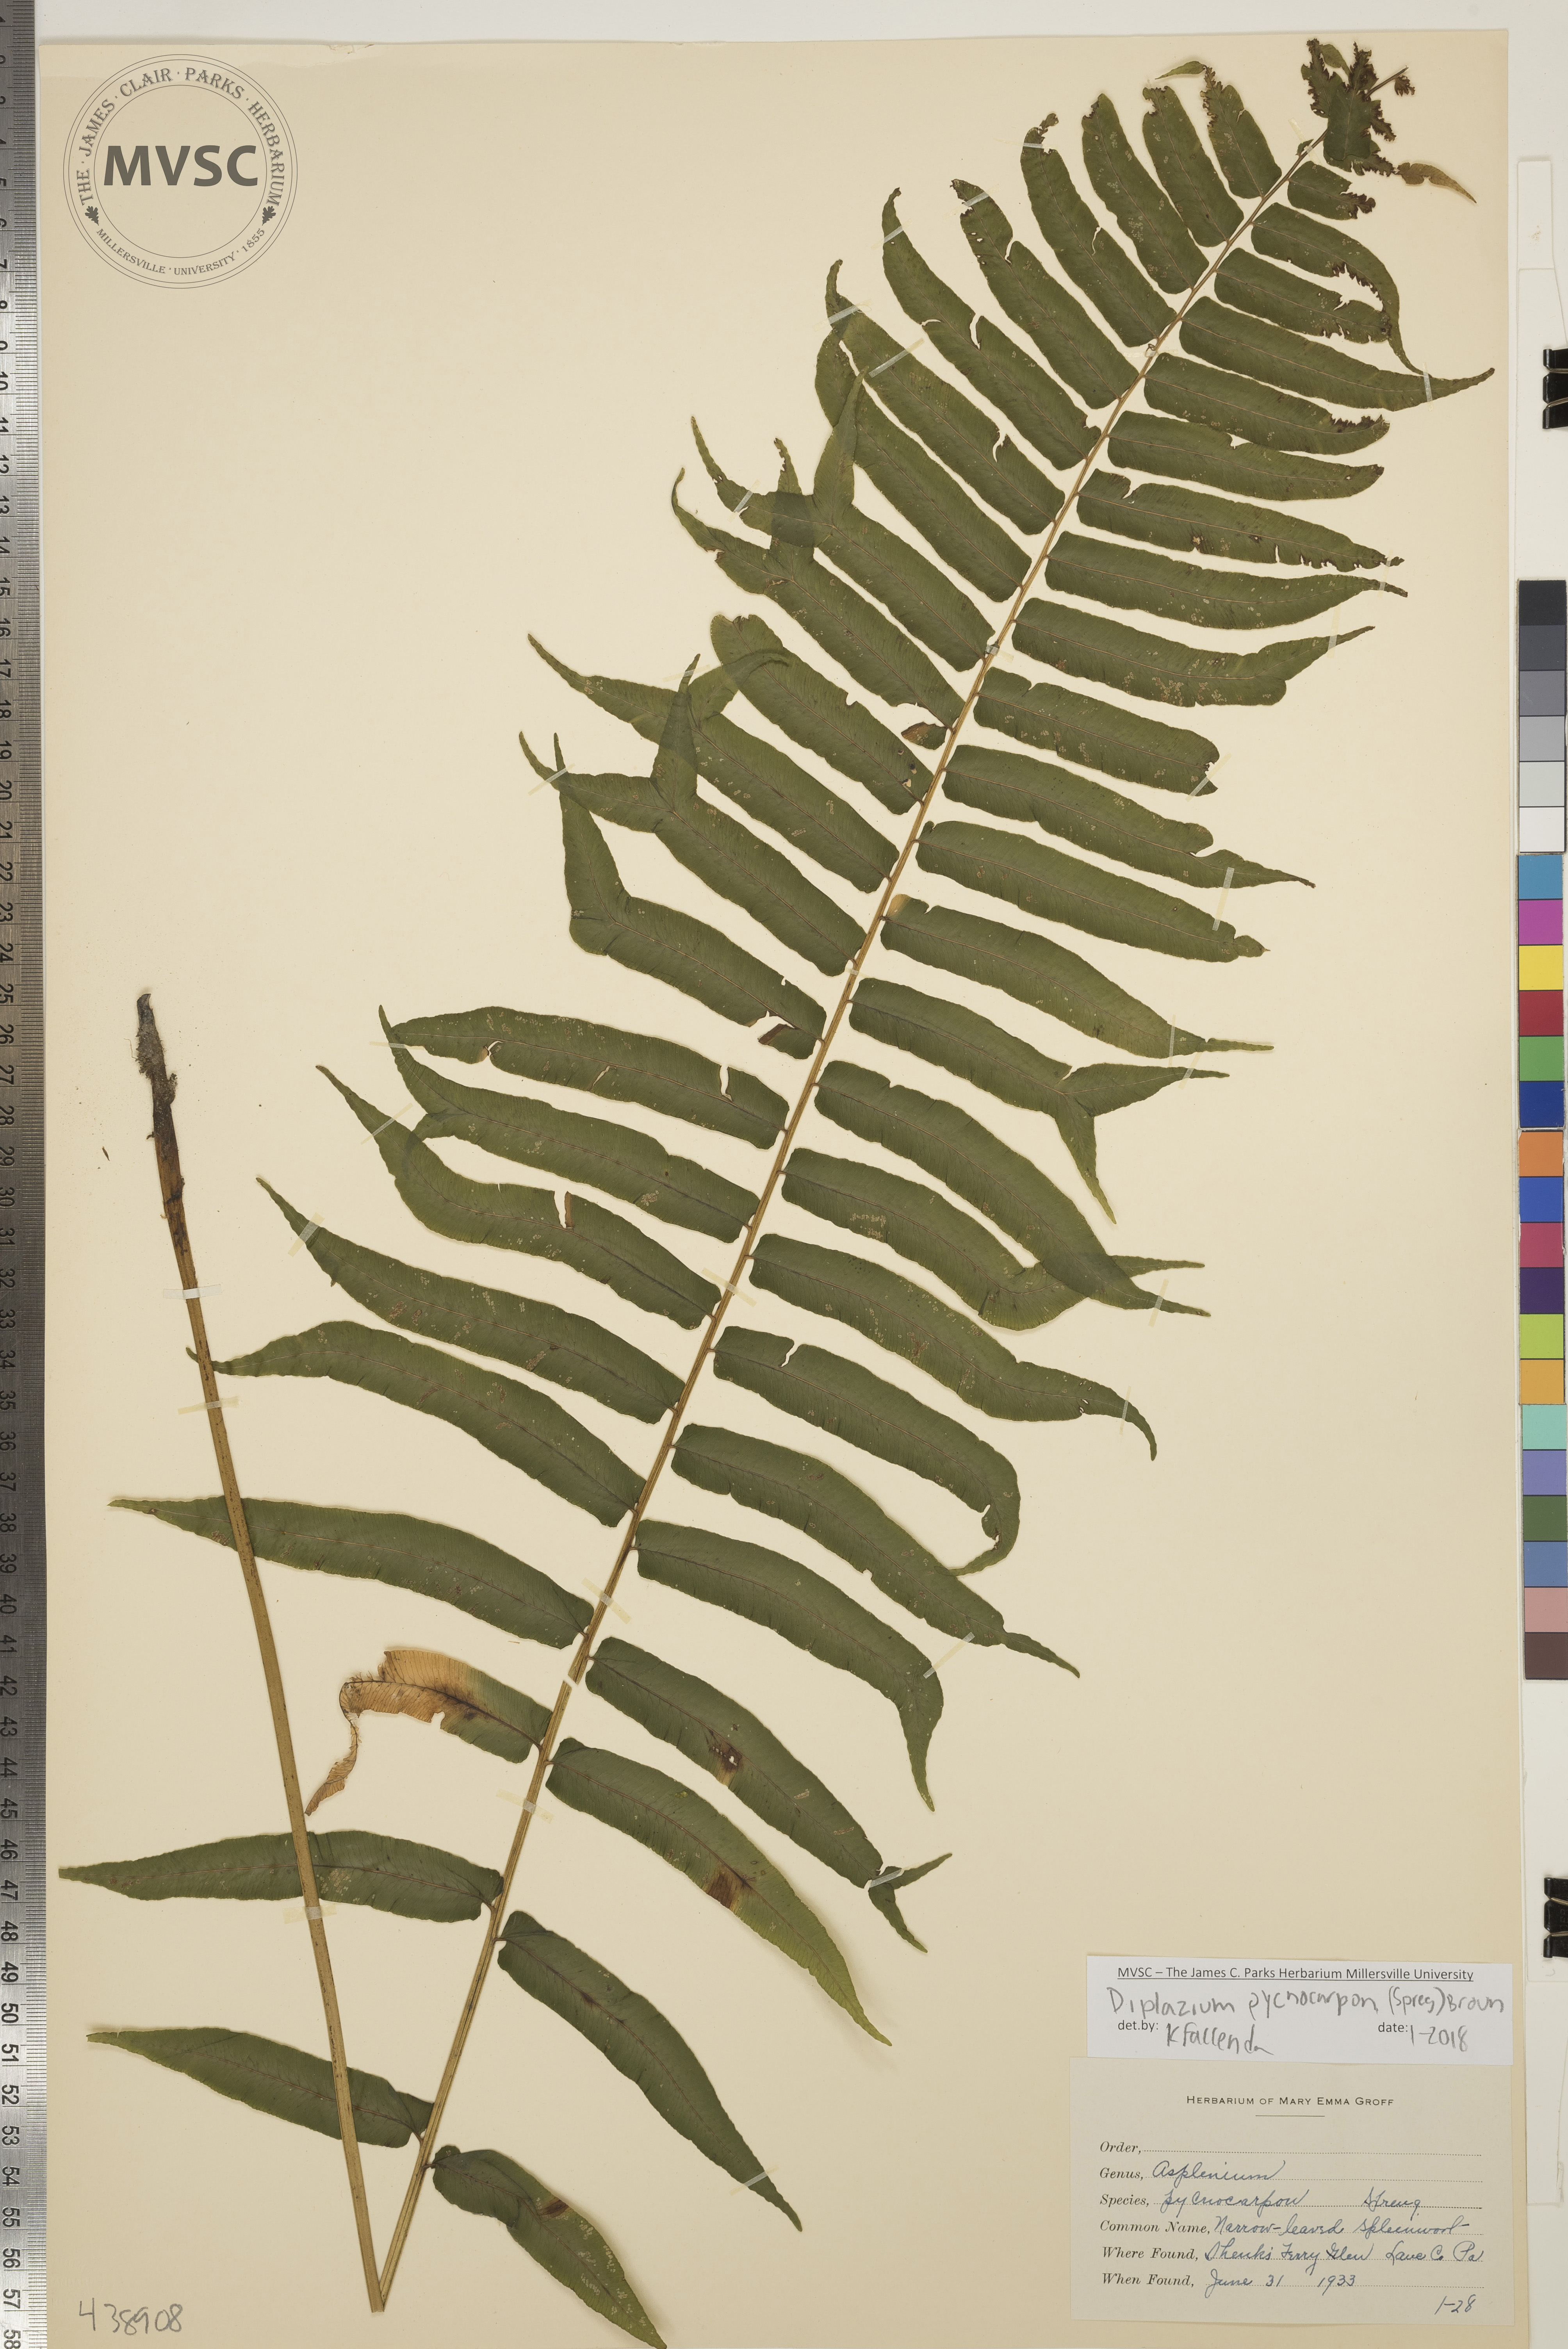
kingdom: Plantae
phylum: Tracheophyta
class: Polypodiopsida
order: Polypodiales
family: Diplaziopsidaceae
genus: Homalosorus
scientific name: Homalosorus pycnocarpos
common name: Glade fern
